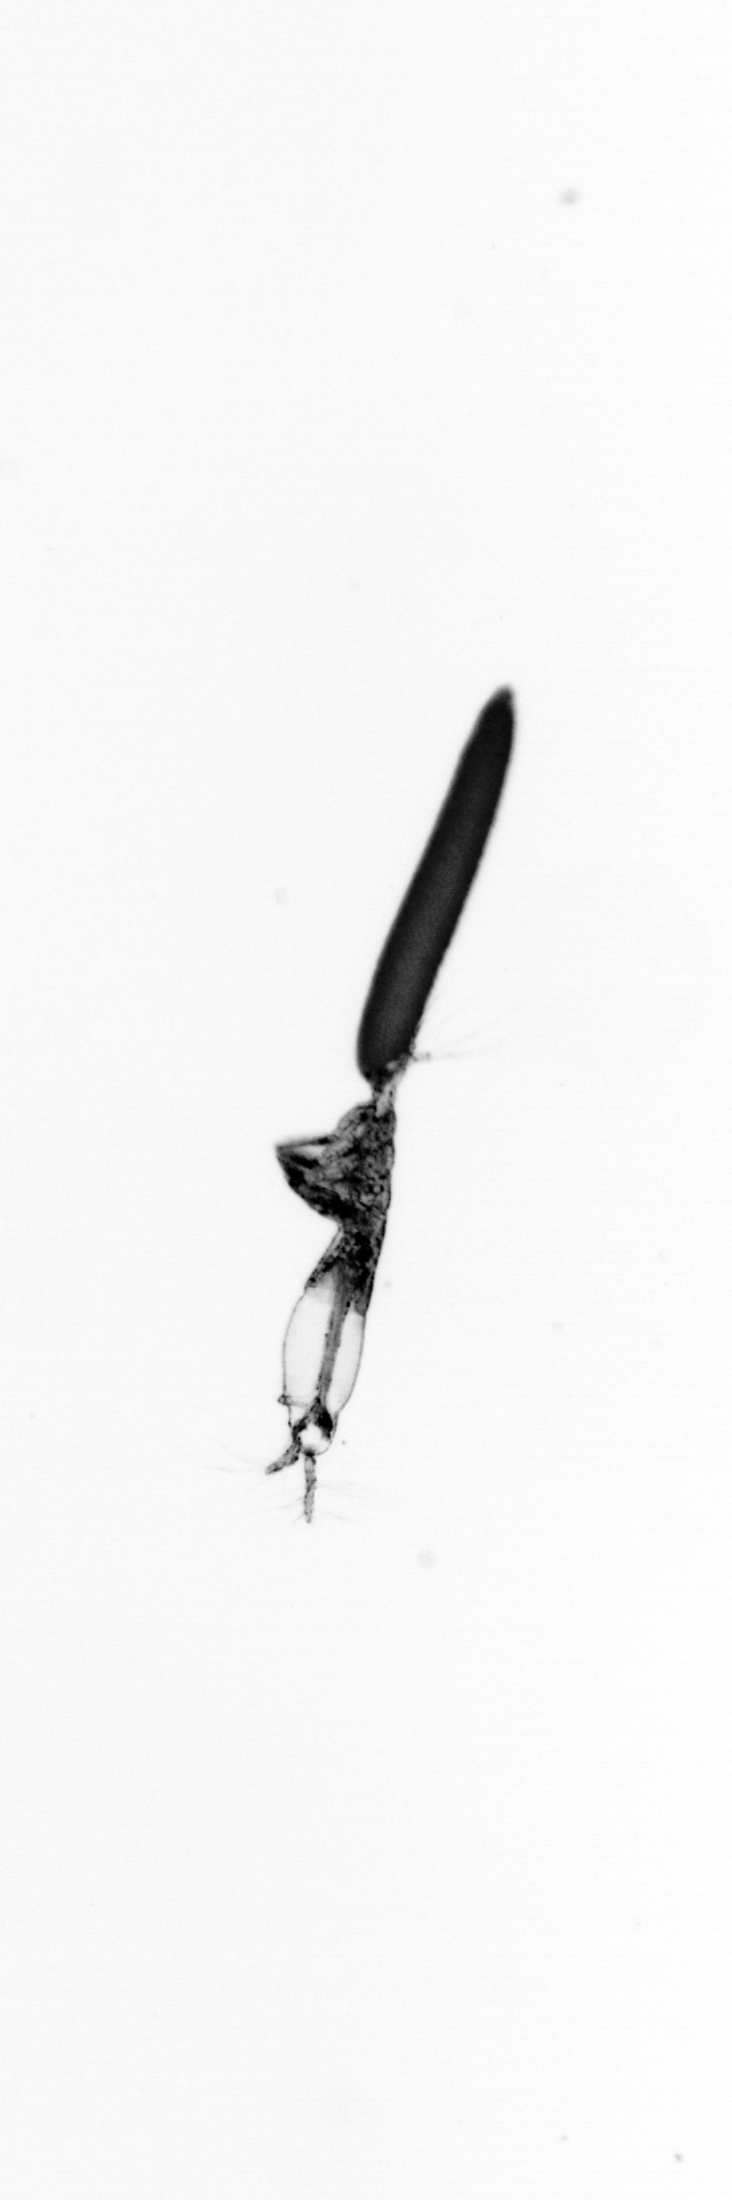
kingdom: Animalia
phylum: Annelida
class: Polychaeta
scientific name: Polychaeta
